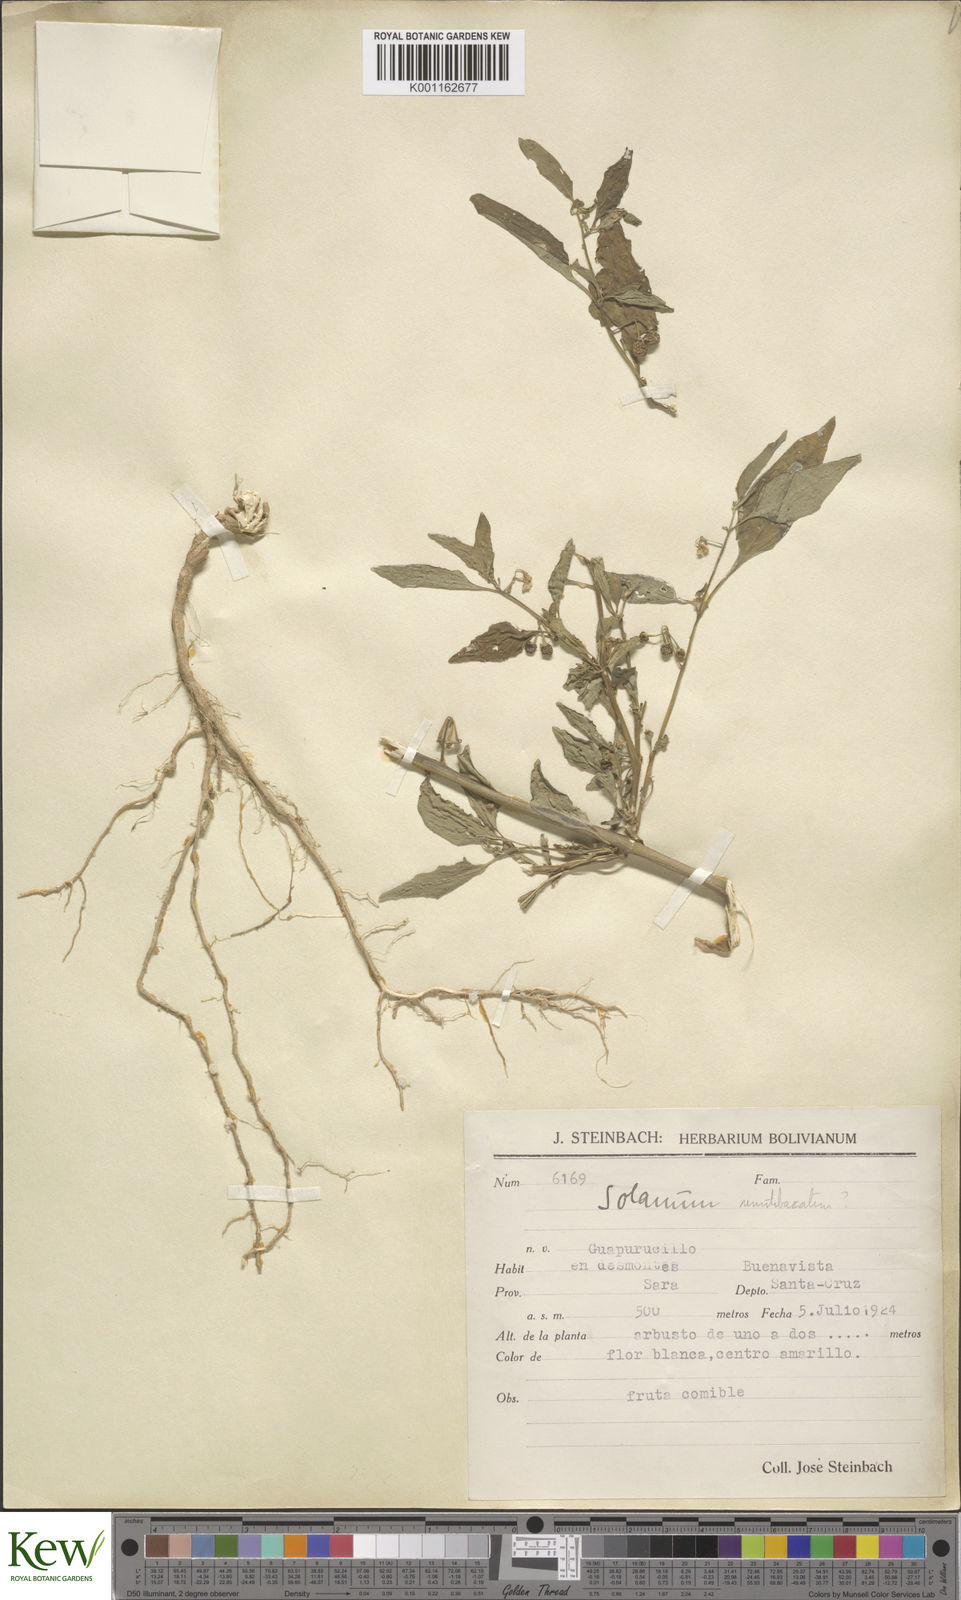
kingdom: Plantae
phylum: Tracheophyta
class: Magnoliopsida
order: Solanales
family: Solanaceae
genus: Solanum
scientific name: Solanum americanum
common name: American black nightshade
